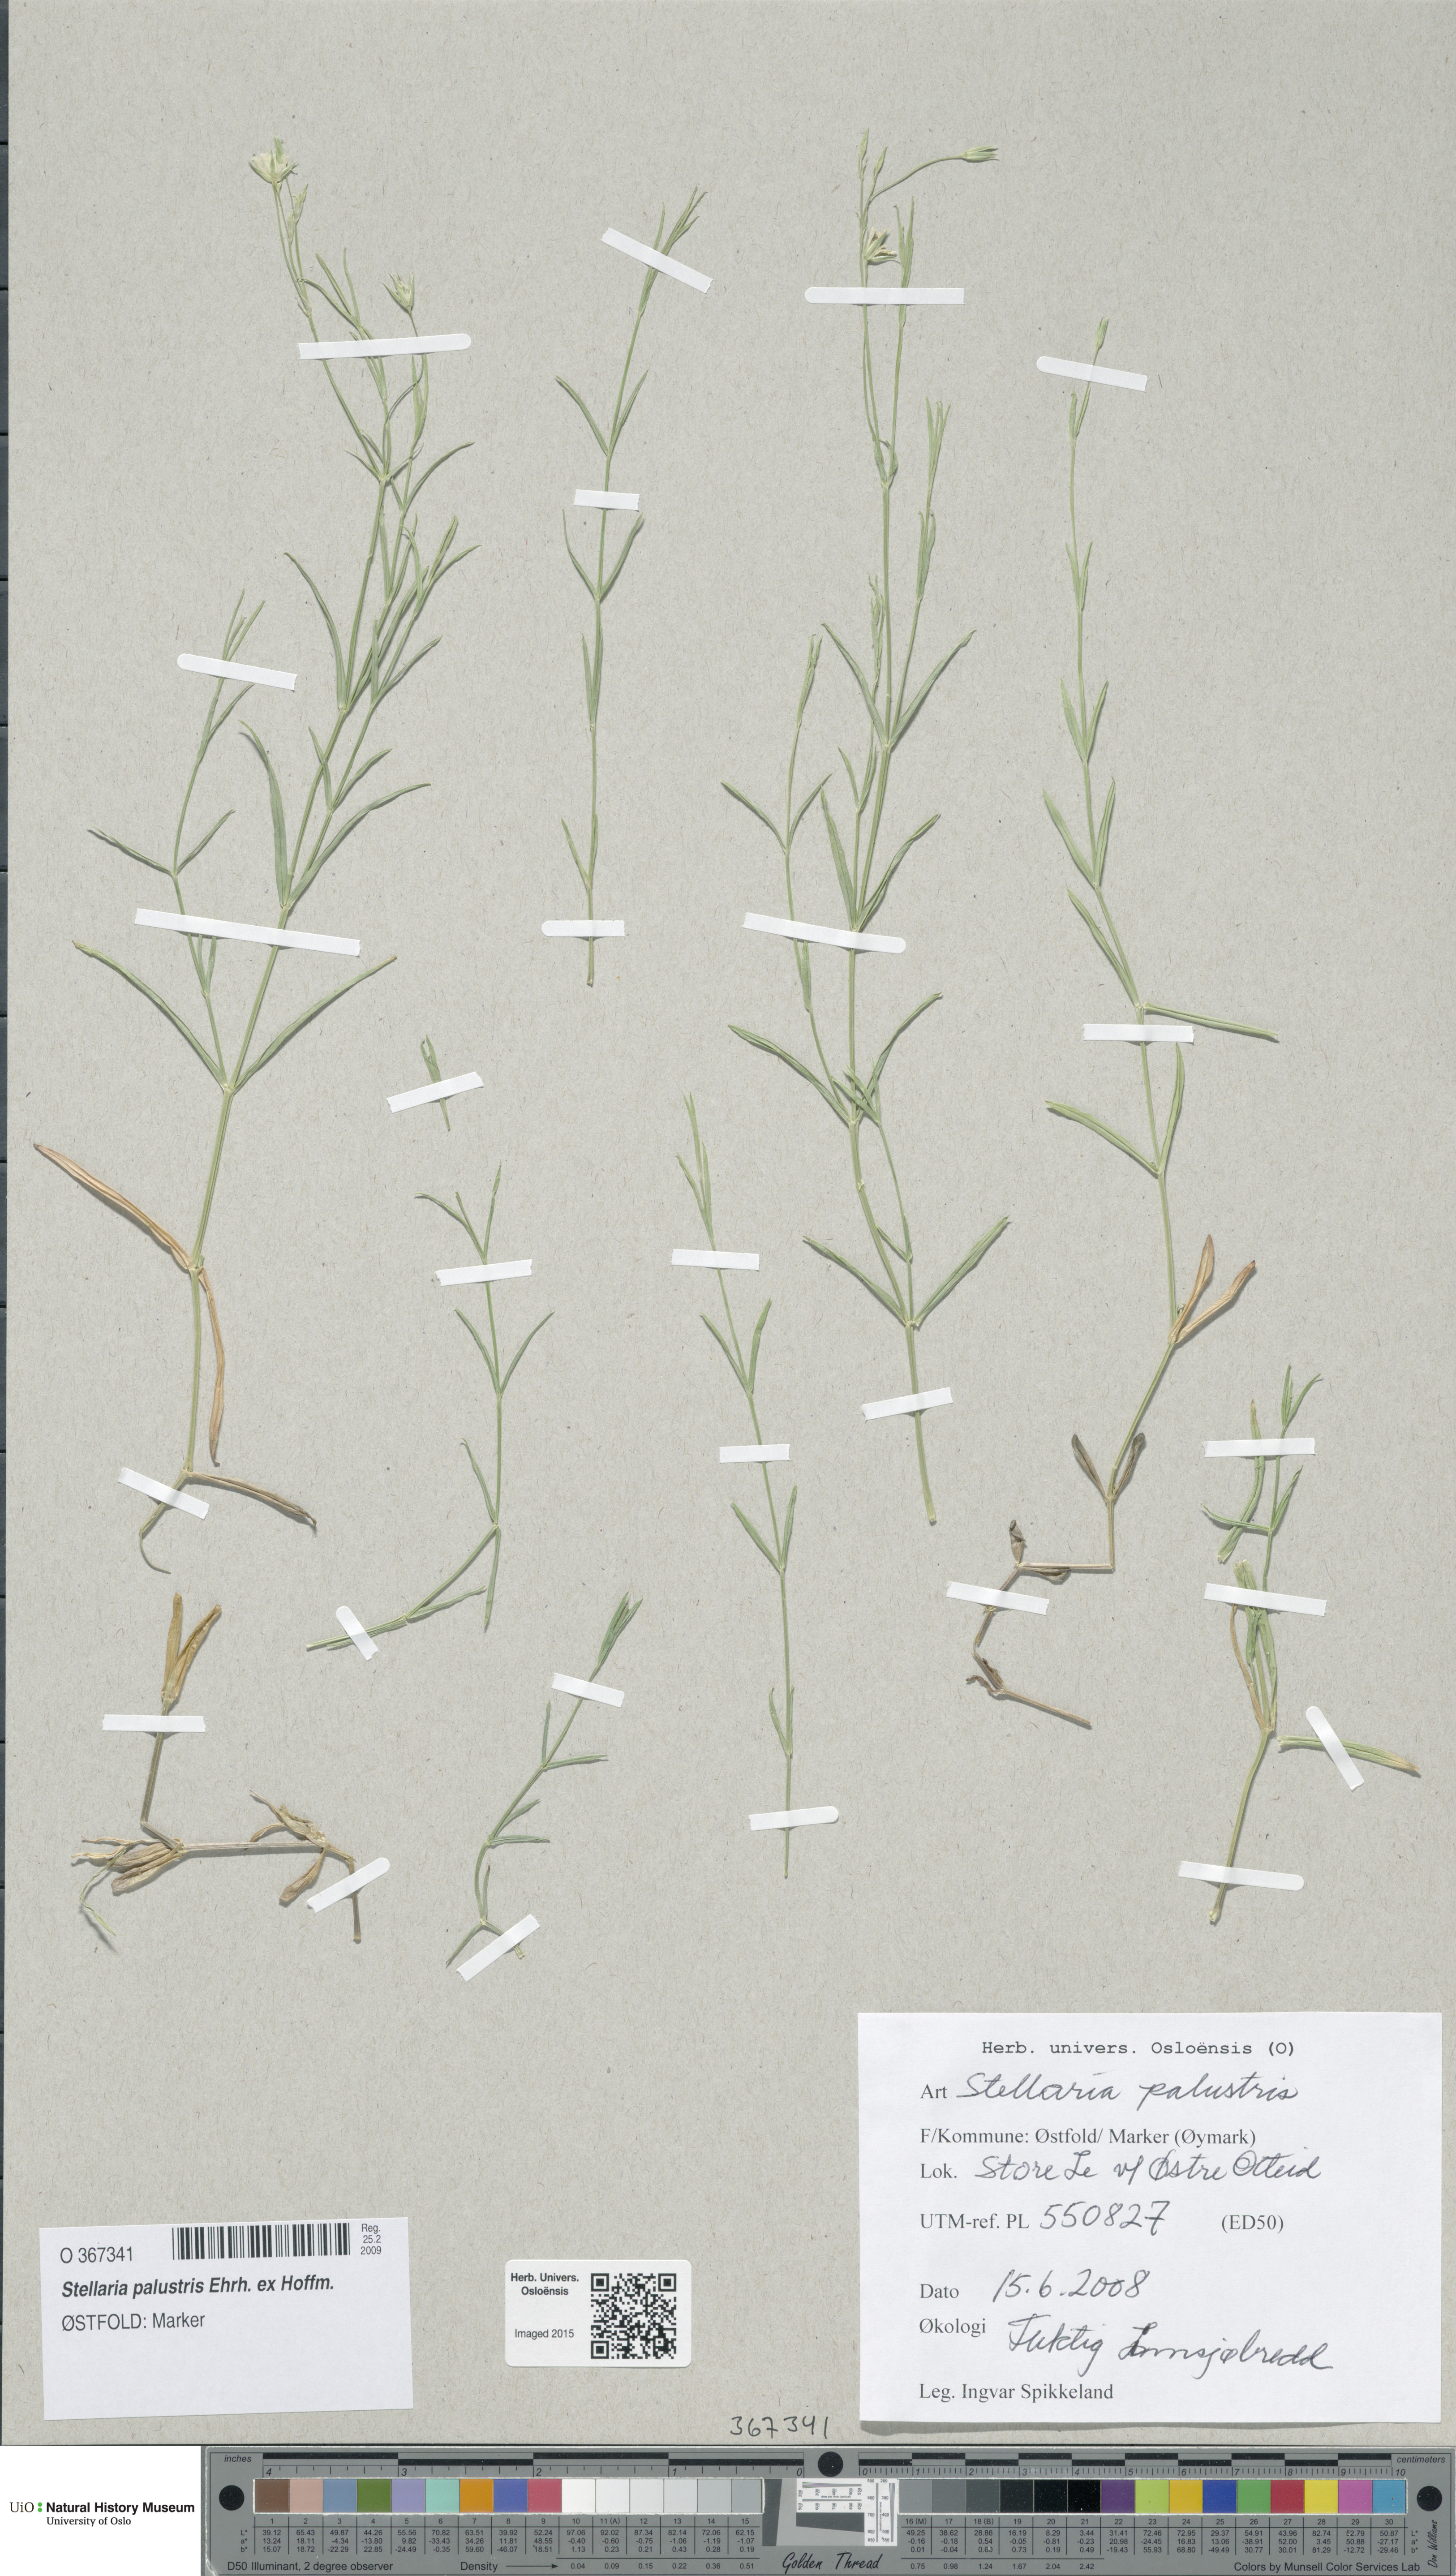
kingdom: Plantae
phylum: Tracheophyta
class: Magnoliopsida
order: Caryophyllales
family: Caryophyllaceae
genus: Stellaria
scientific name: Stellaria palustris
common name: Marsh stitchwort
